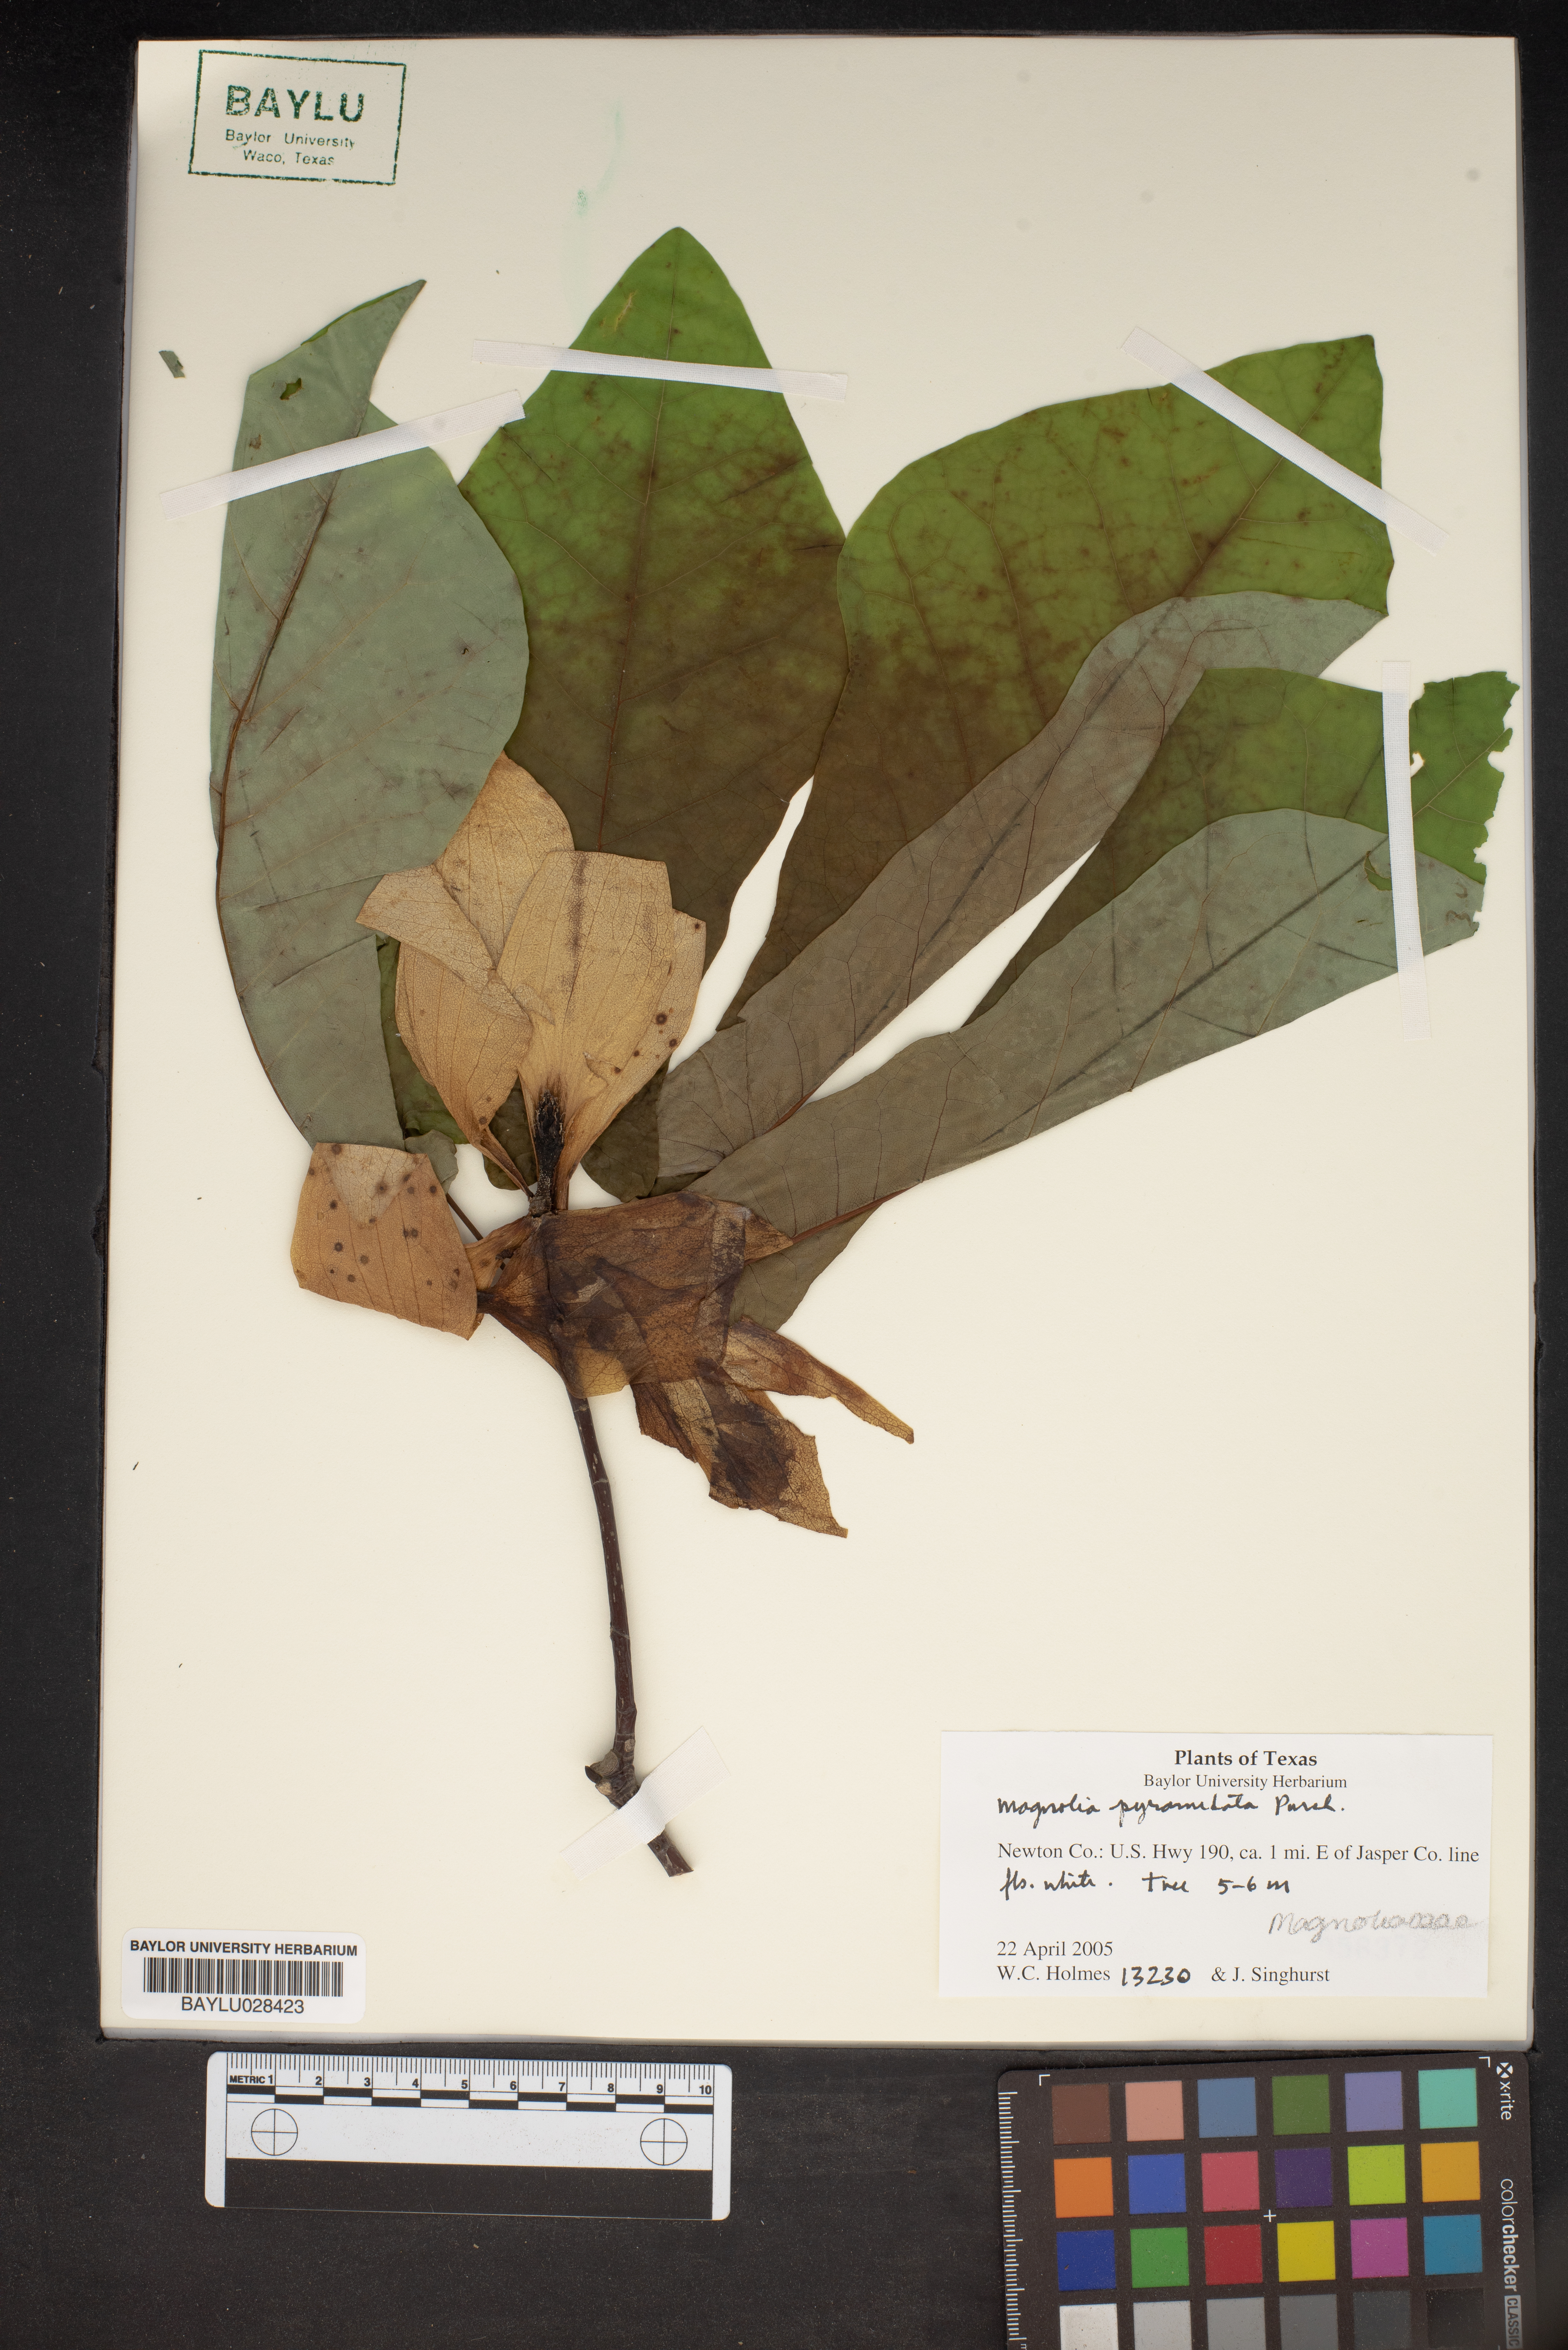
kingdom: Plantae
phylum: Tracheophyta
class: Magnoliopsida
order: Magnoliales
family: Magnoliaceae
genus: Magnolia
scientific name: Magnolia fraseri
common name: Fraser's magnolia
